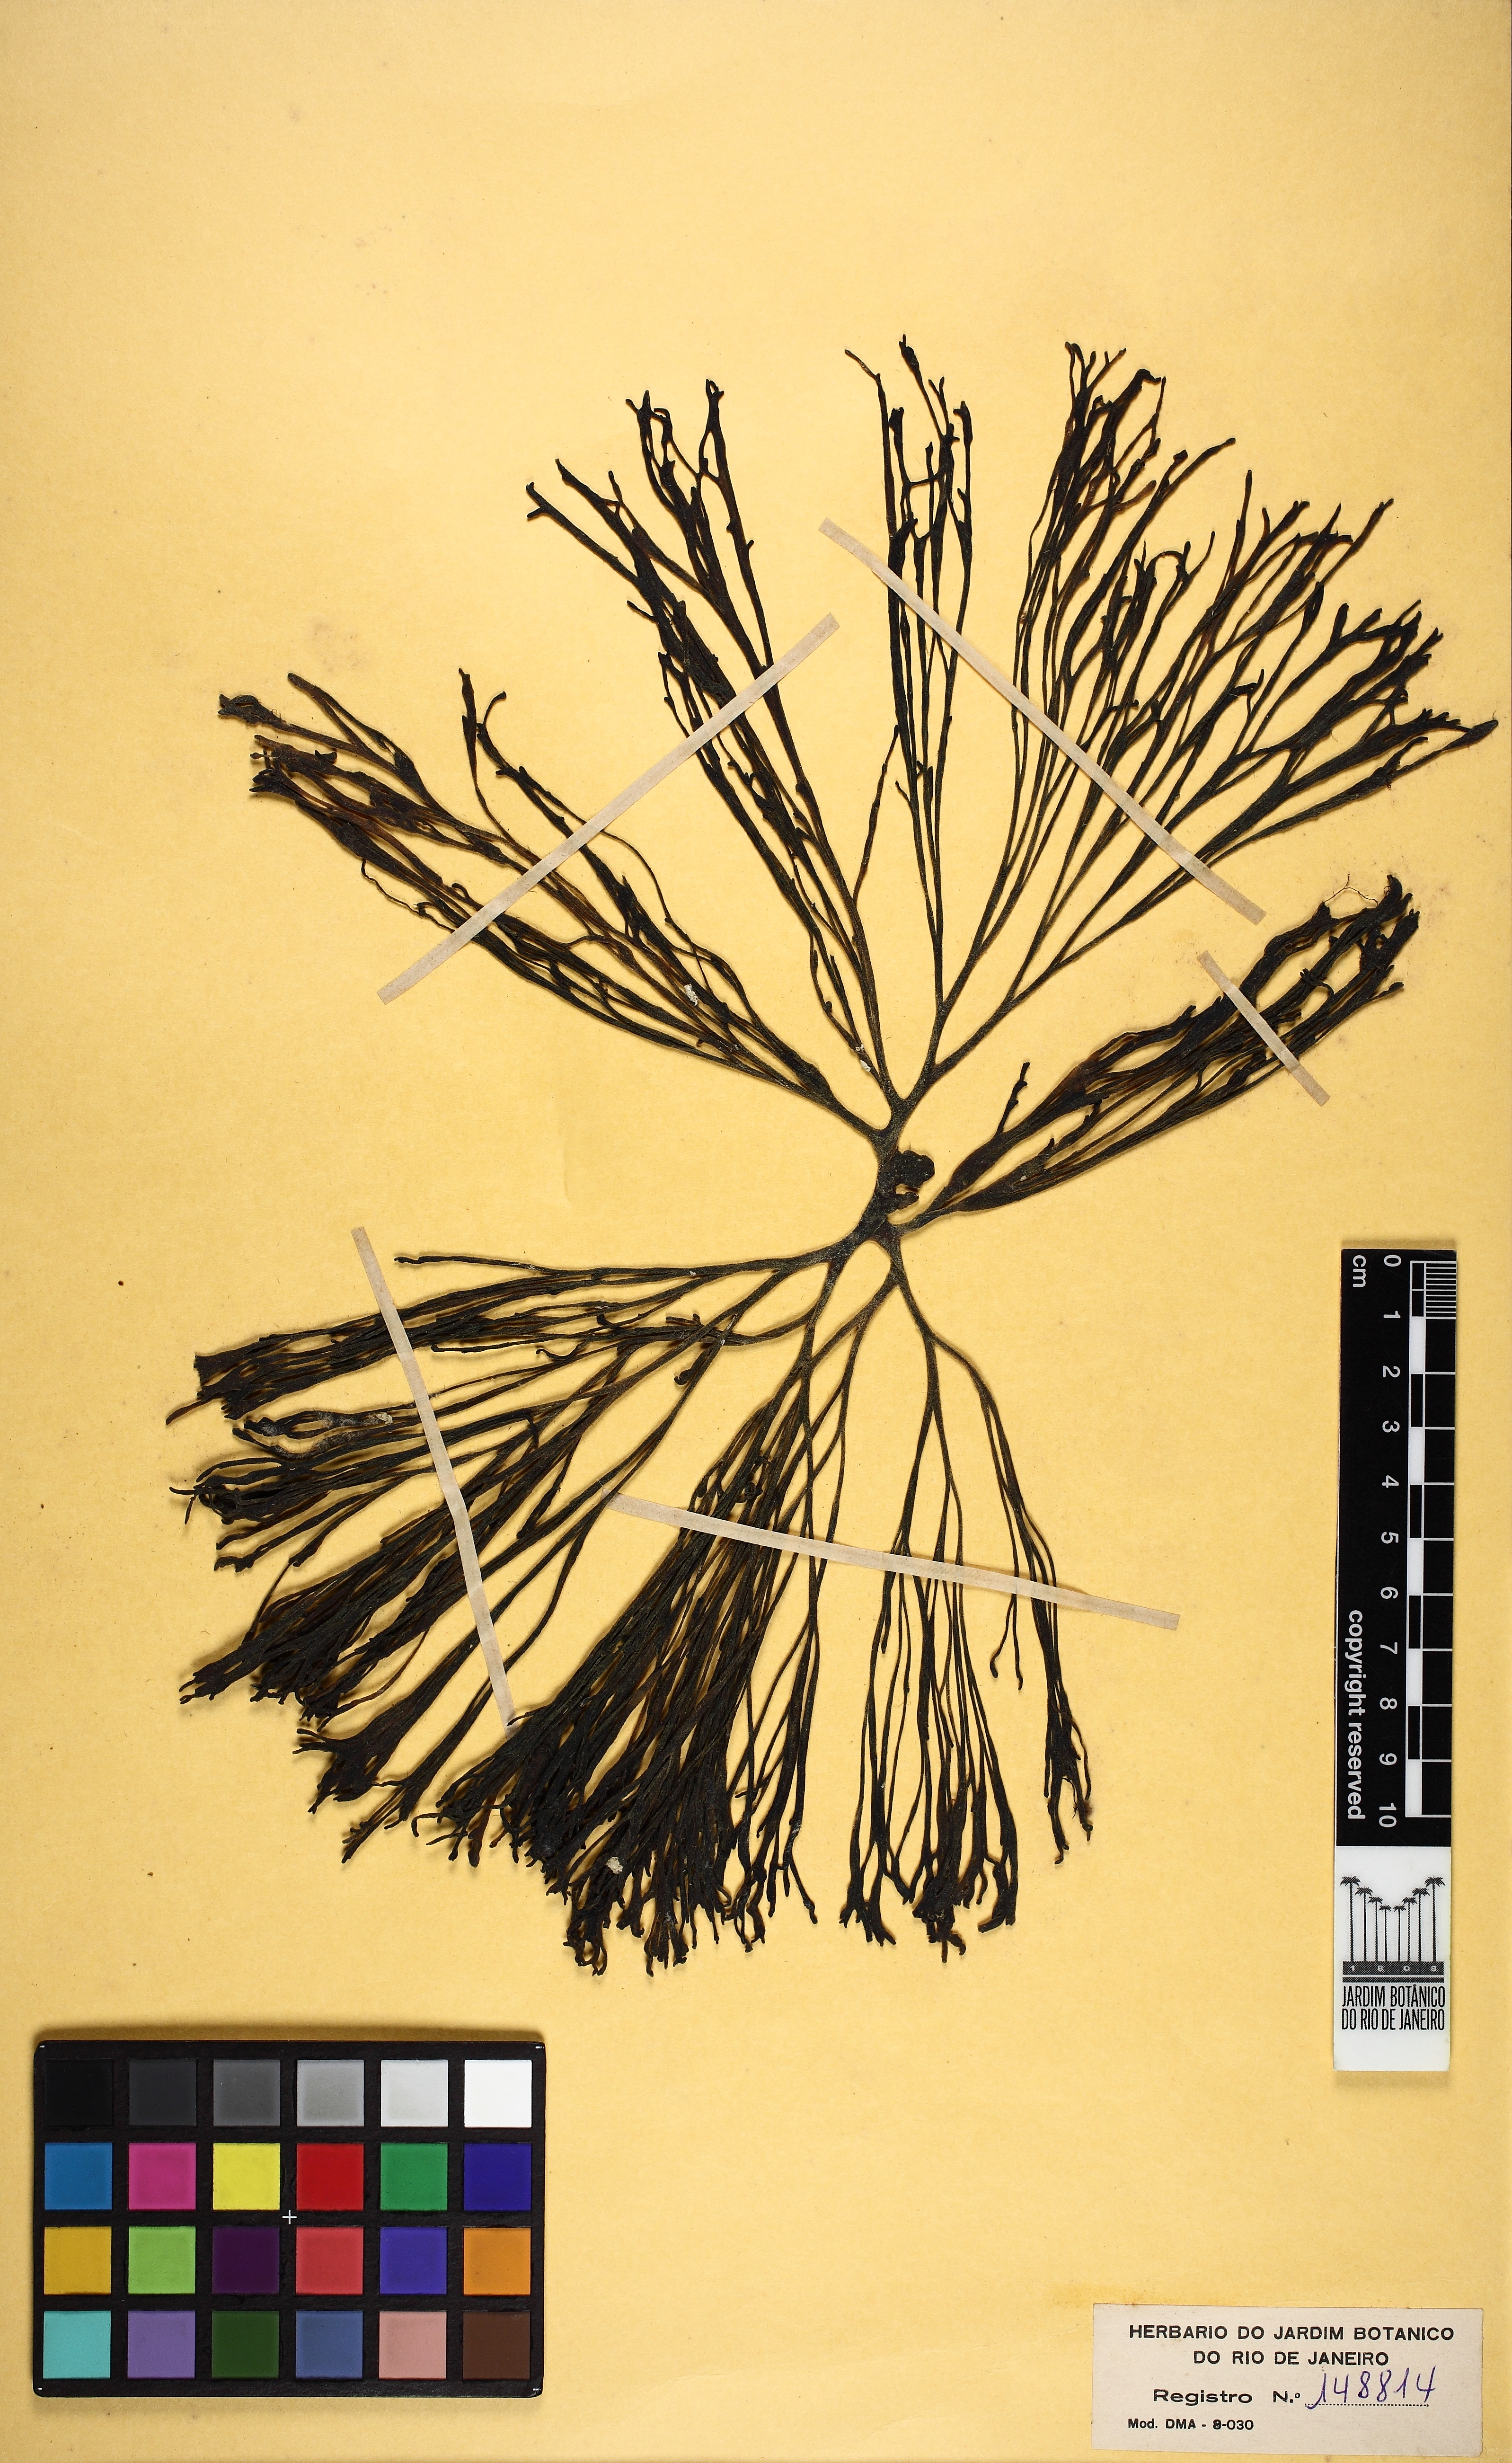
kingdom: Plantae
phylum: Chlorophyta
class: Ulvophyceae
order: Bryopsidales
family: Codiaceae
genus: Codium
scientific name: Codium
